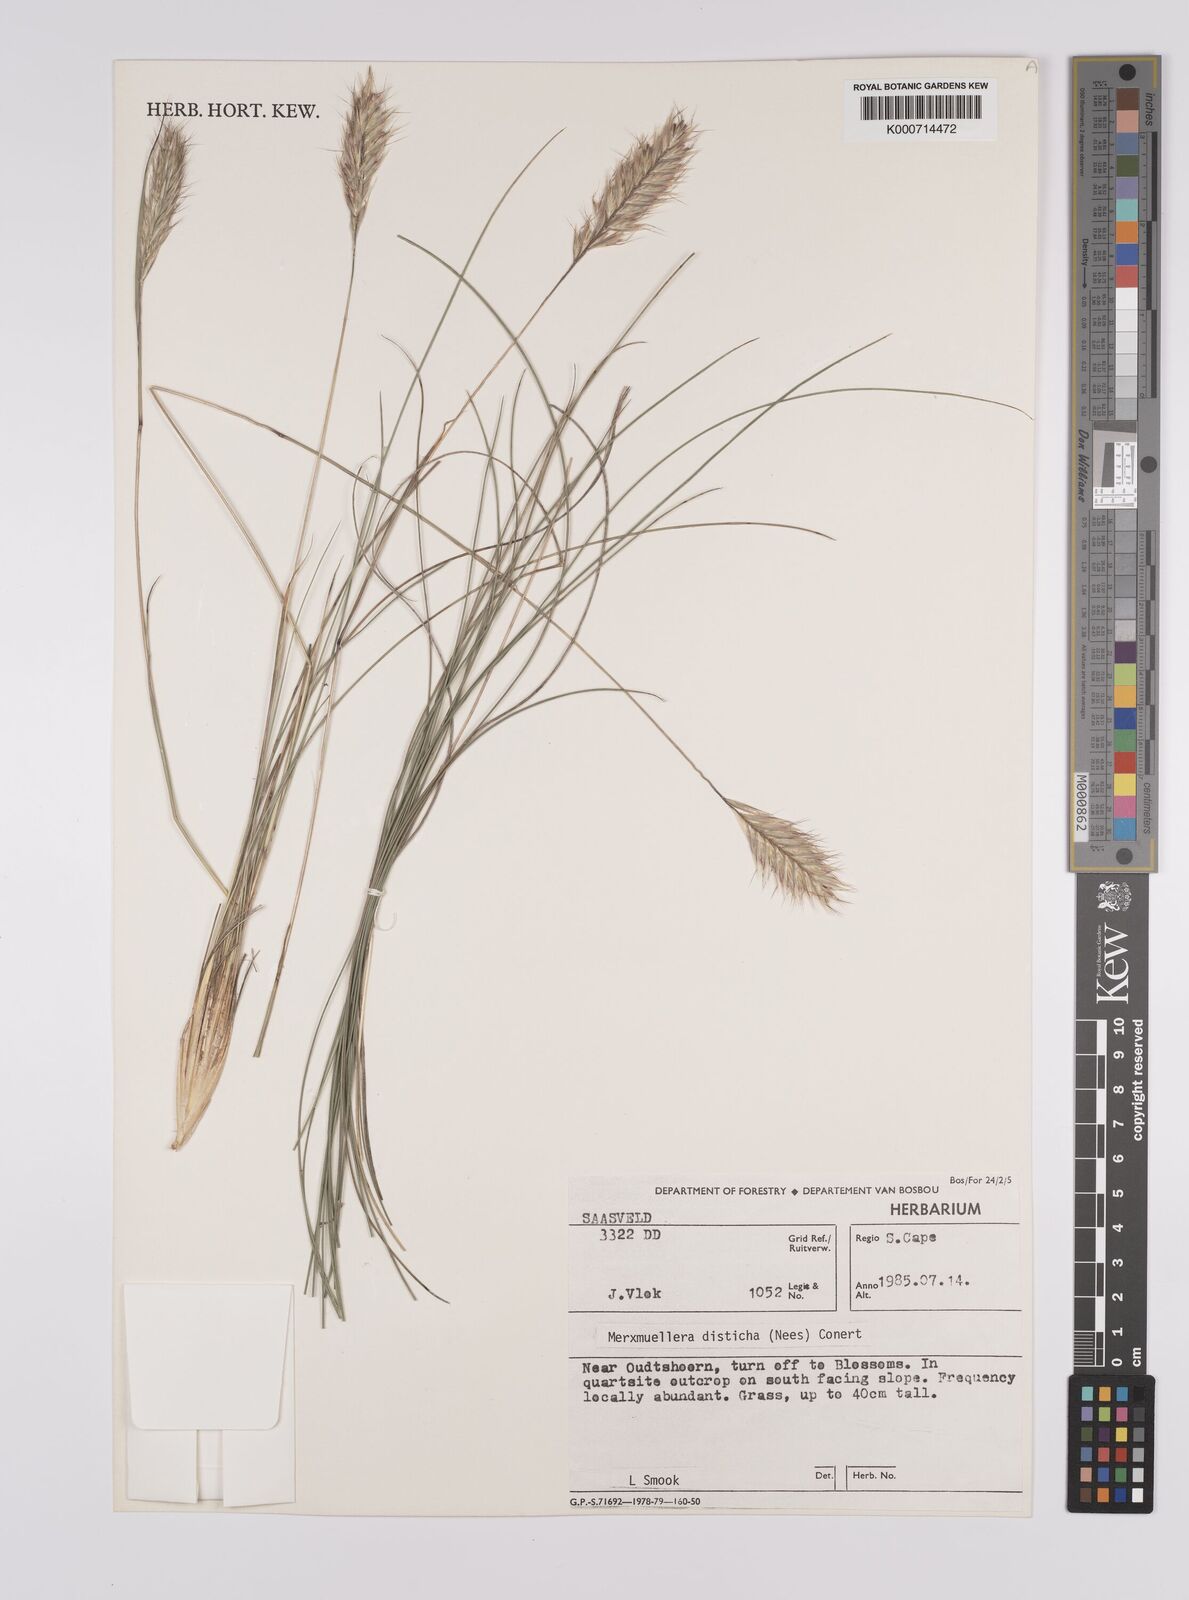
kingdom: Plantae
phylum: Tracheophyta
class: Liliopsida
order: Poales
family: Poaceae
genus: Tenaxia
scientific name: Tenaxia disticha
